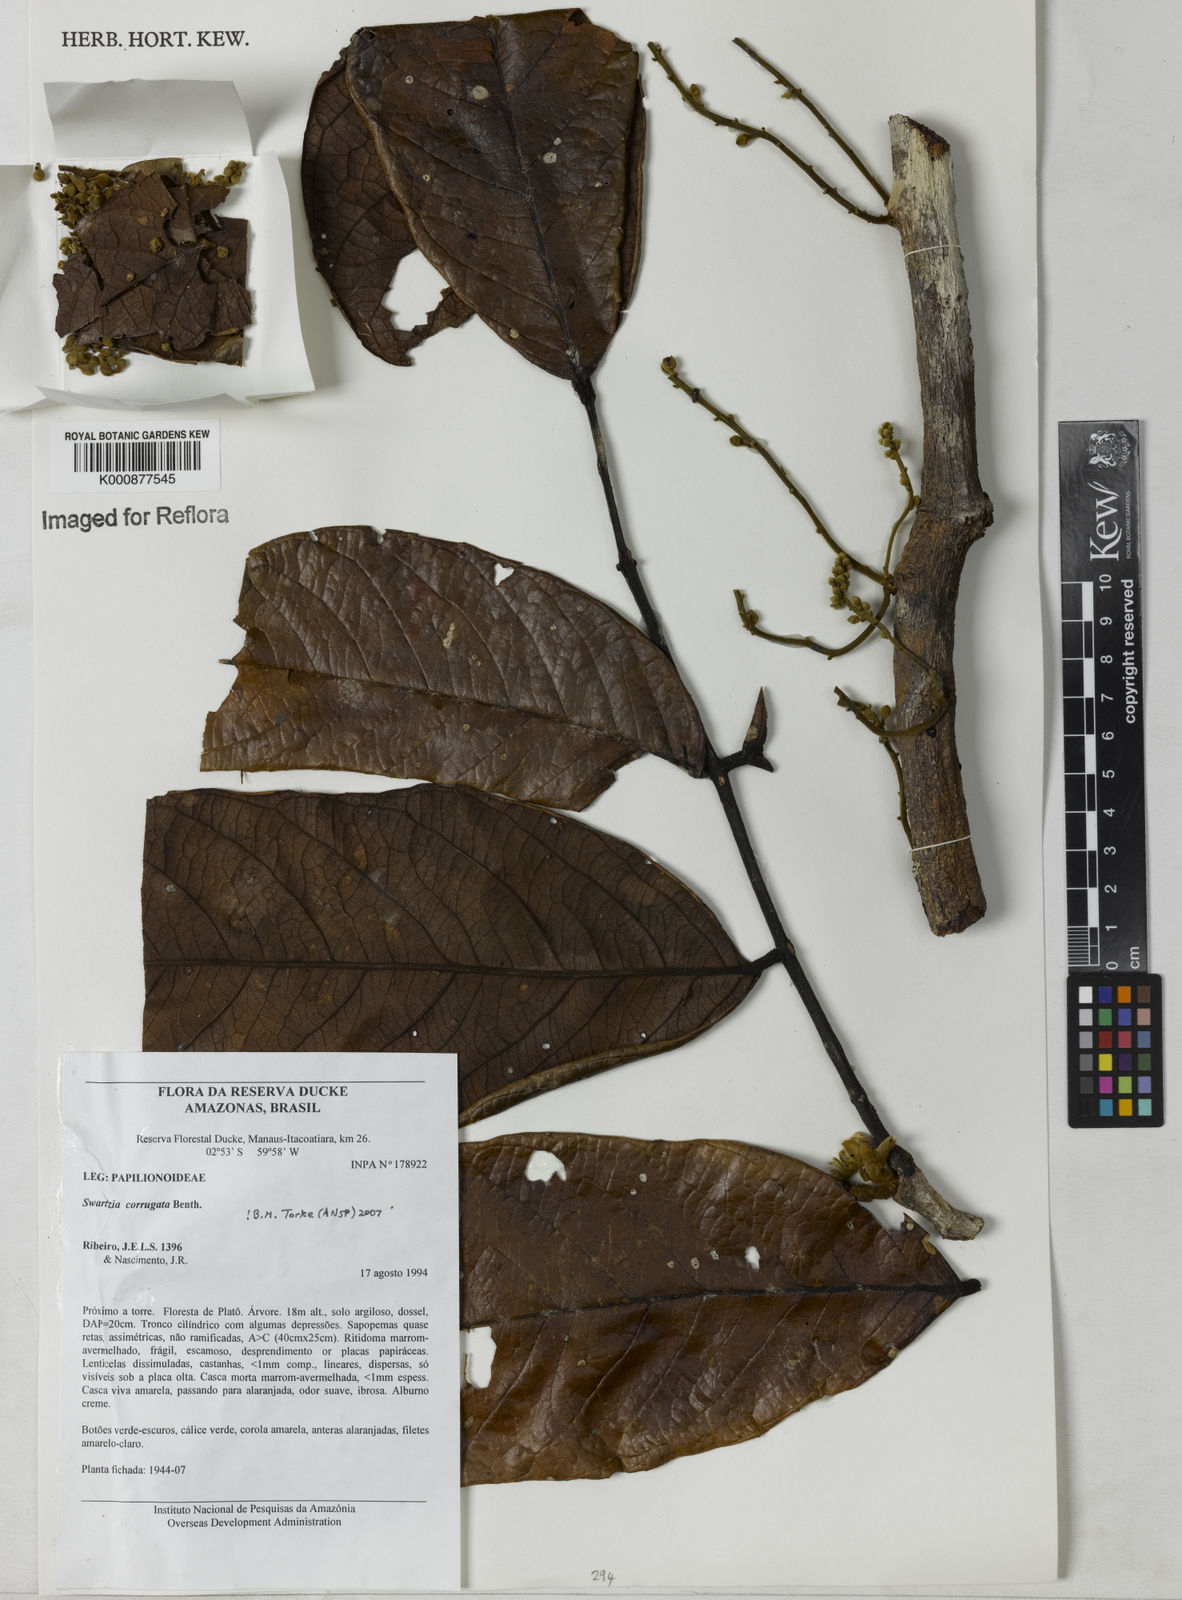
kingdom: Plantae
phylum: Tracheophyta
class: Magnoliopsida
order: Fabales
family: Fabaceae
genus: Swartzia
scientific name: Swartzia corrugata
